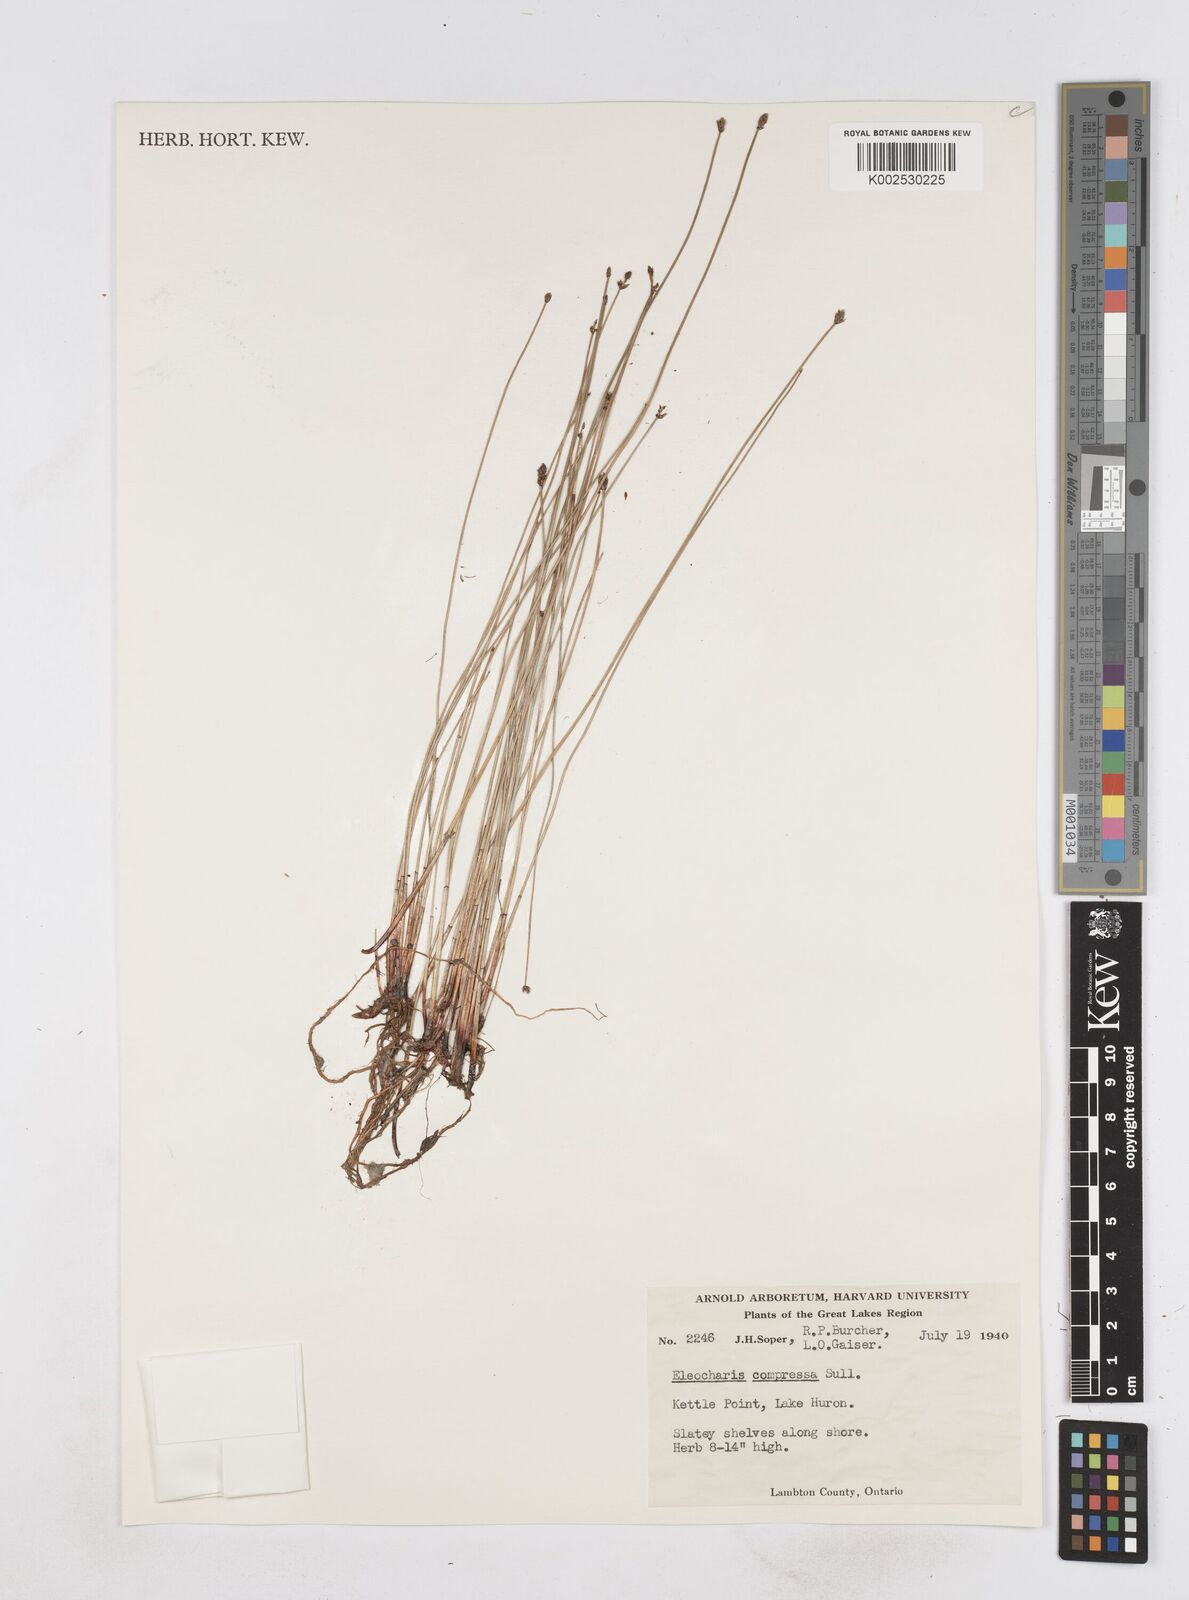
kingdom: Plantae
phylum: Tracheophyta
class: Liliopsida
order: Poales
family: Cyperaceae
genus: Eleocharis
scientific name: Eleocharis compressa
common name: Flat-stem spike-rush
